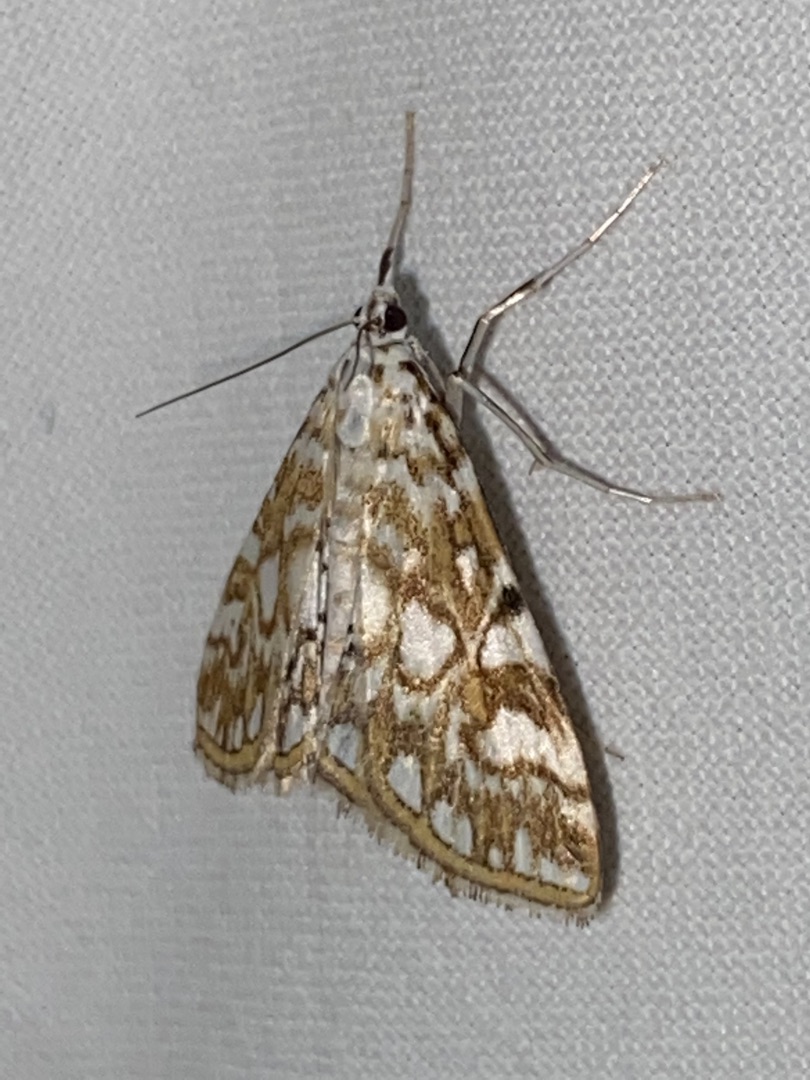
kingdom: Animalia
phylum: Arthropoda
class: Insecta
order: Lepidoptera
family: Crambidae
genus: Elophila
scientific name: Elophila nymphaeata
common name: Åkandehalvmøl
